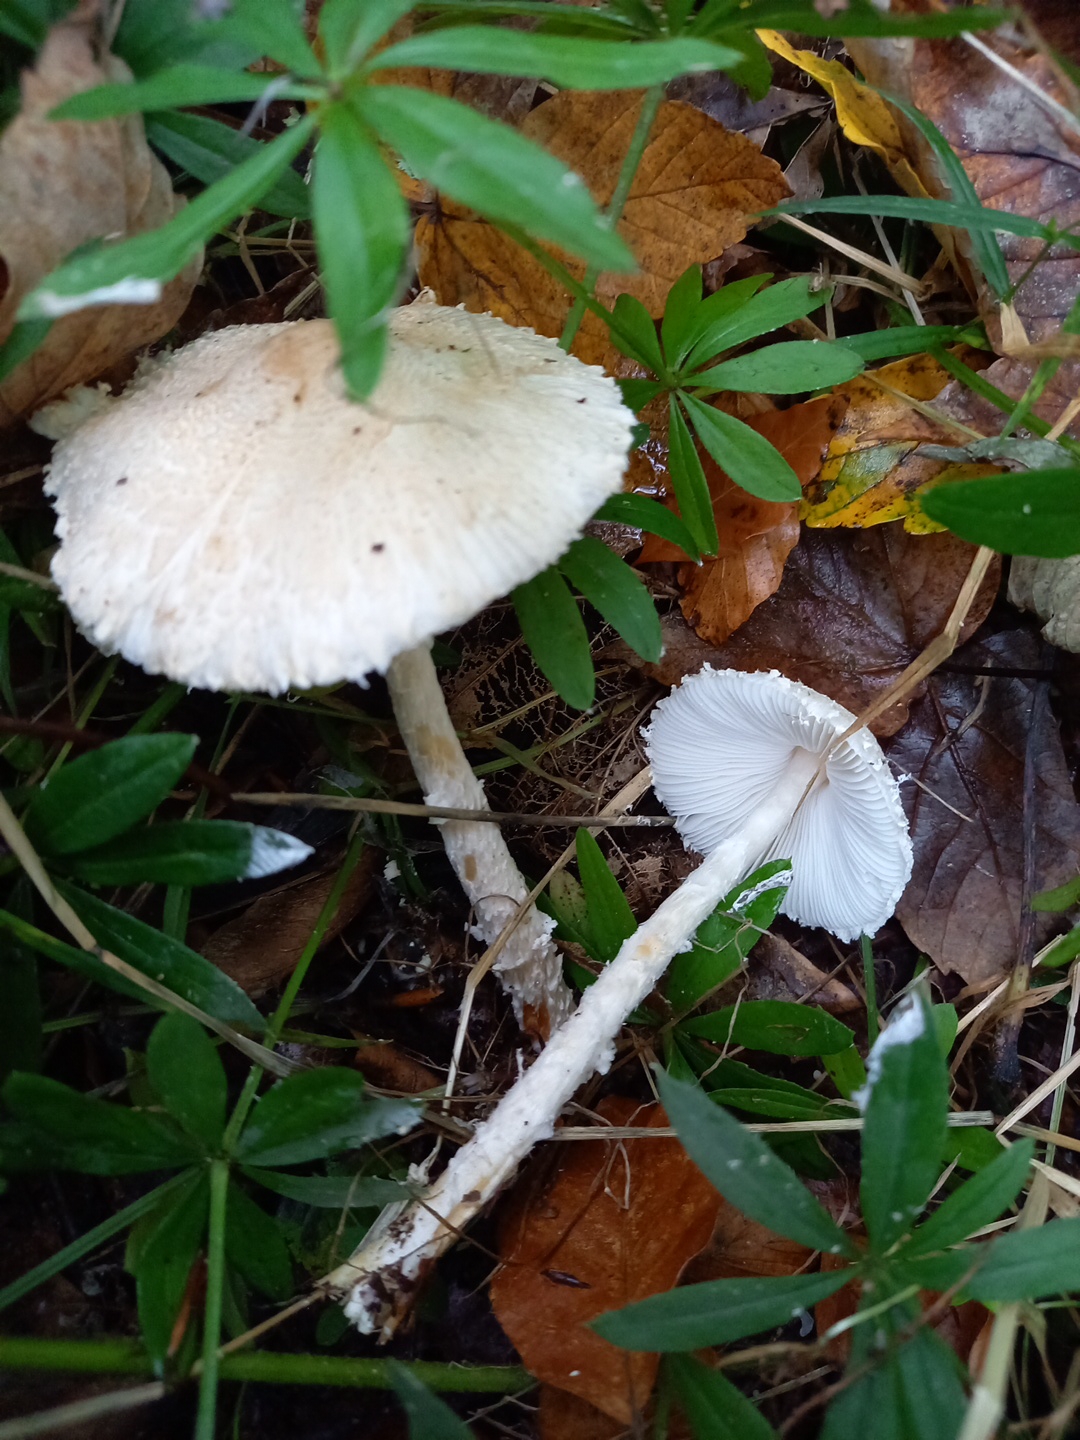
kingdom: Fungi
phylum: Basidiomycota
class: Agaricomycetes
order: Agaricales
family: Agaricaceae
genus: Lepiota
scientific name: Lepiota clypeolaria
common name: flosset parasolhat
